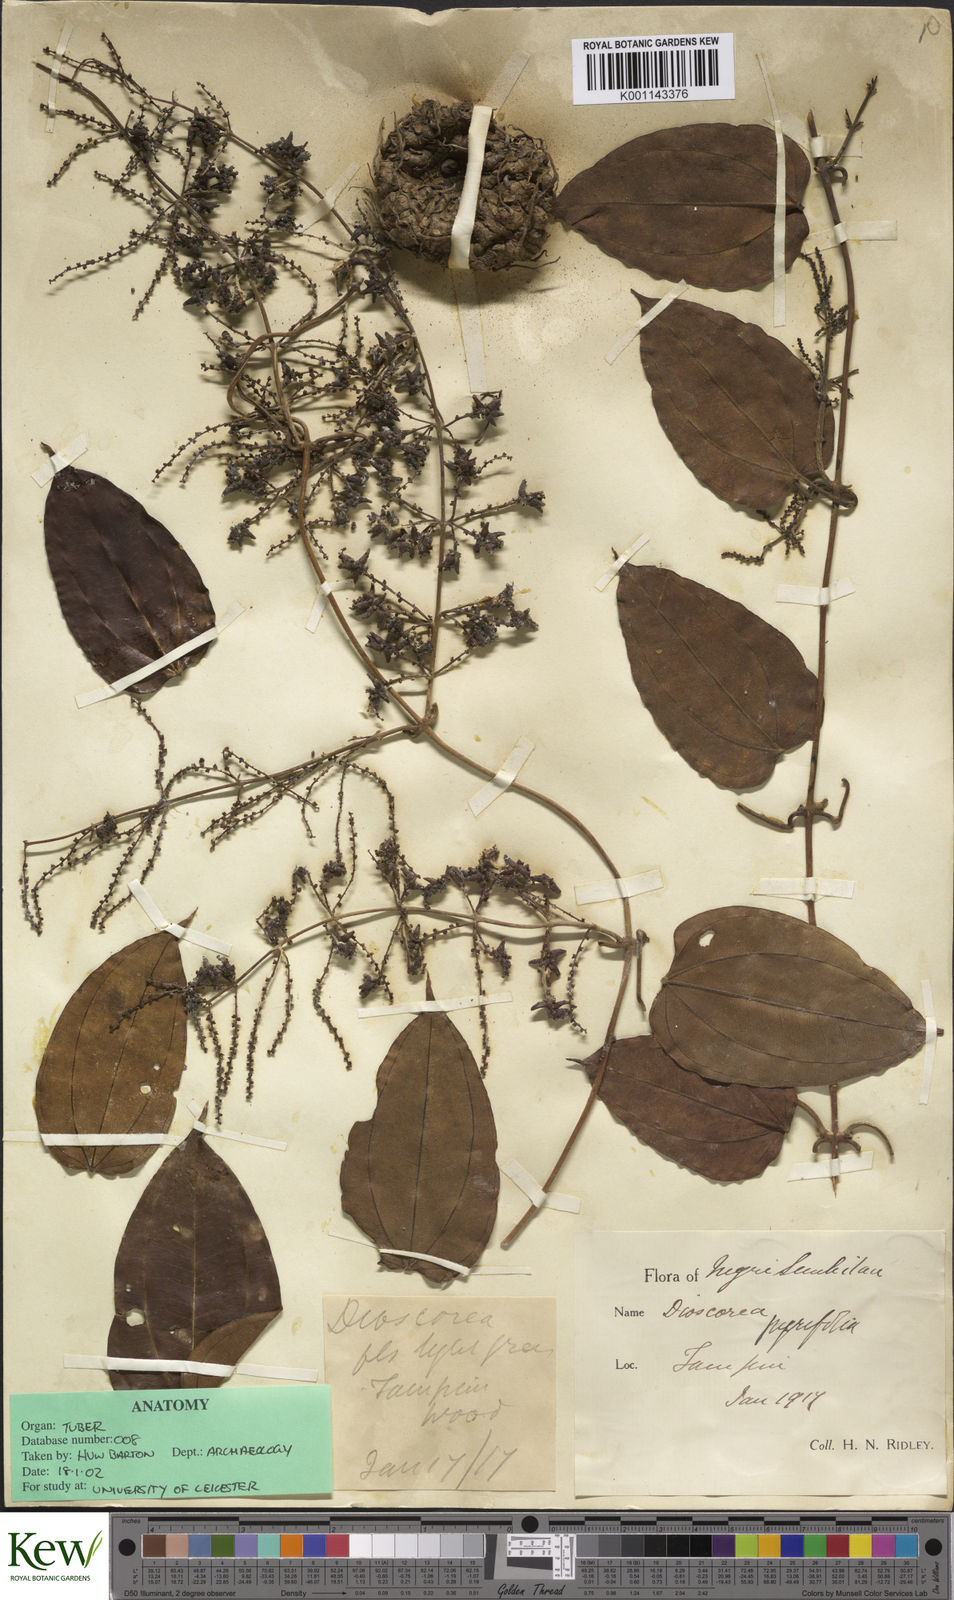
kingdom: Plantae
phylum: Tracheophyta
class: Liliopsida
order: Dioscoreales
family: Dioscoreaceae
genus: Dioscorea
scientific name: Dioscorea pyrifolia
